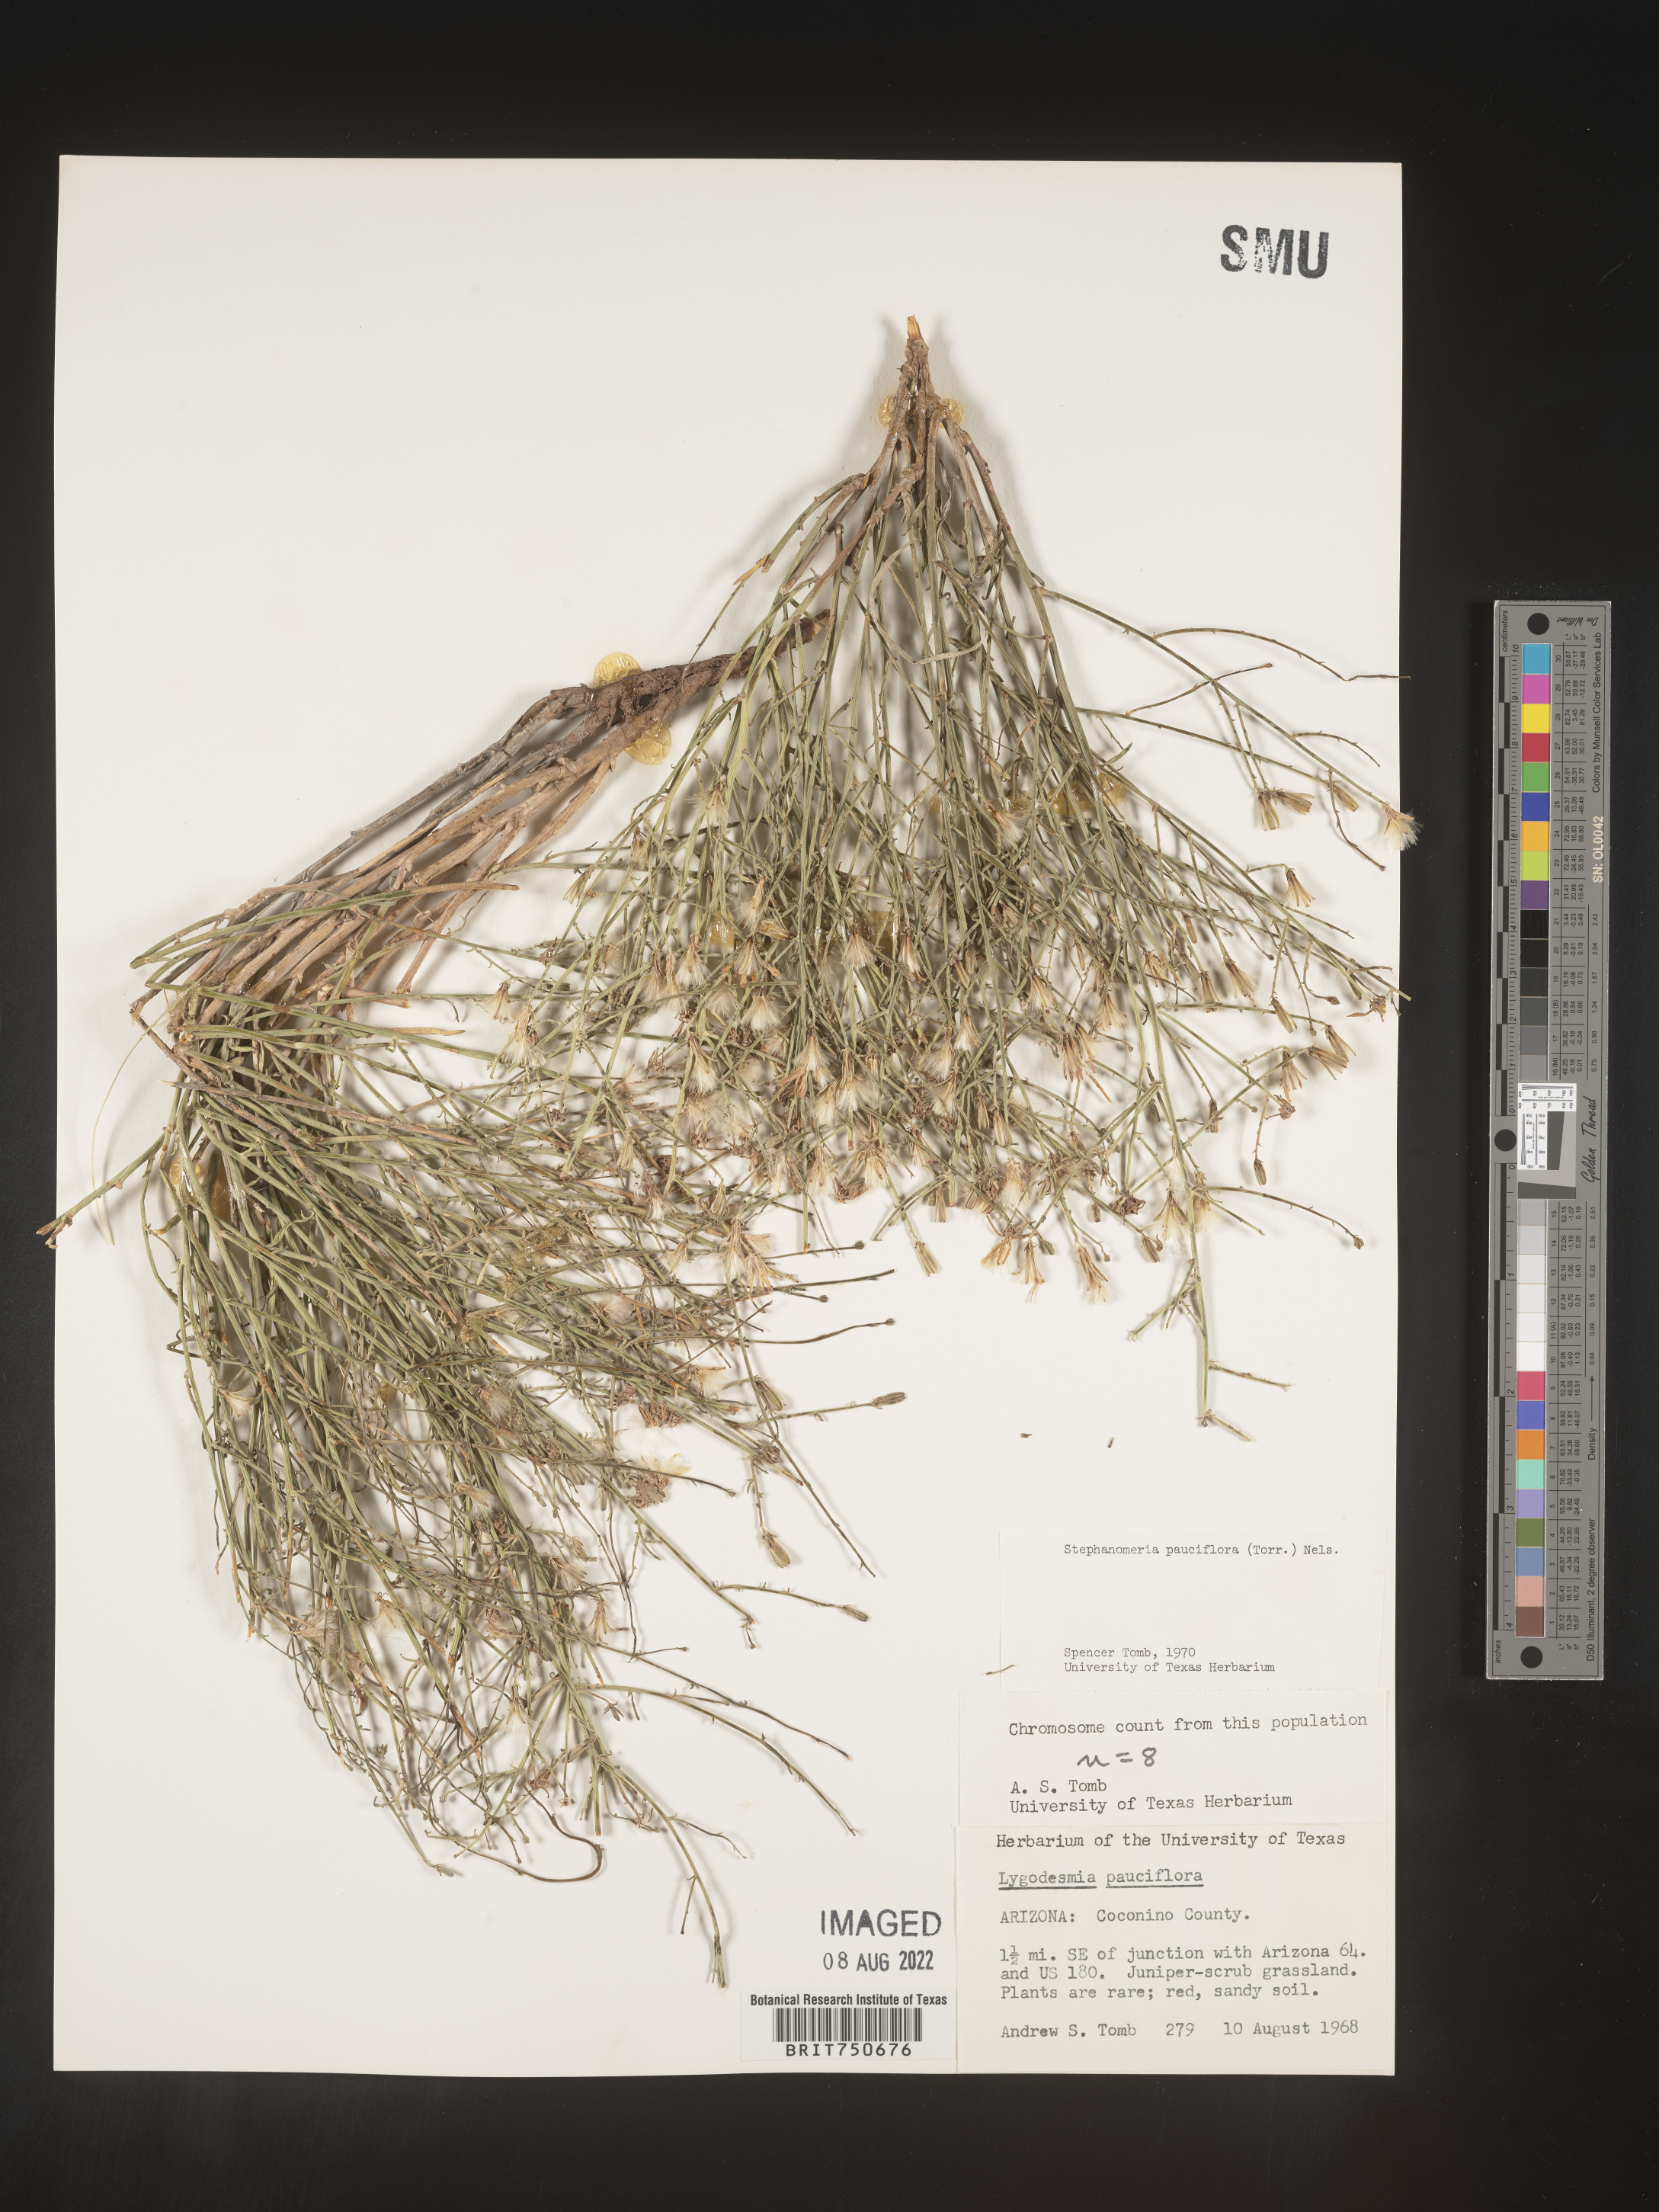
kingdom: Plantae
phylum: Tracheophyta
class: Magnoliopsida
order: Asterales
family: Asteraceae
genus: Stephanomeria
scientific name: Stephanomeria pauciflora
